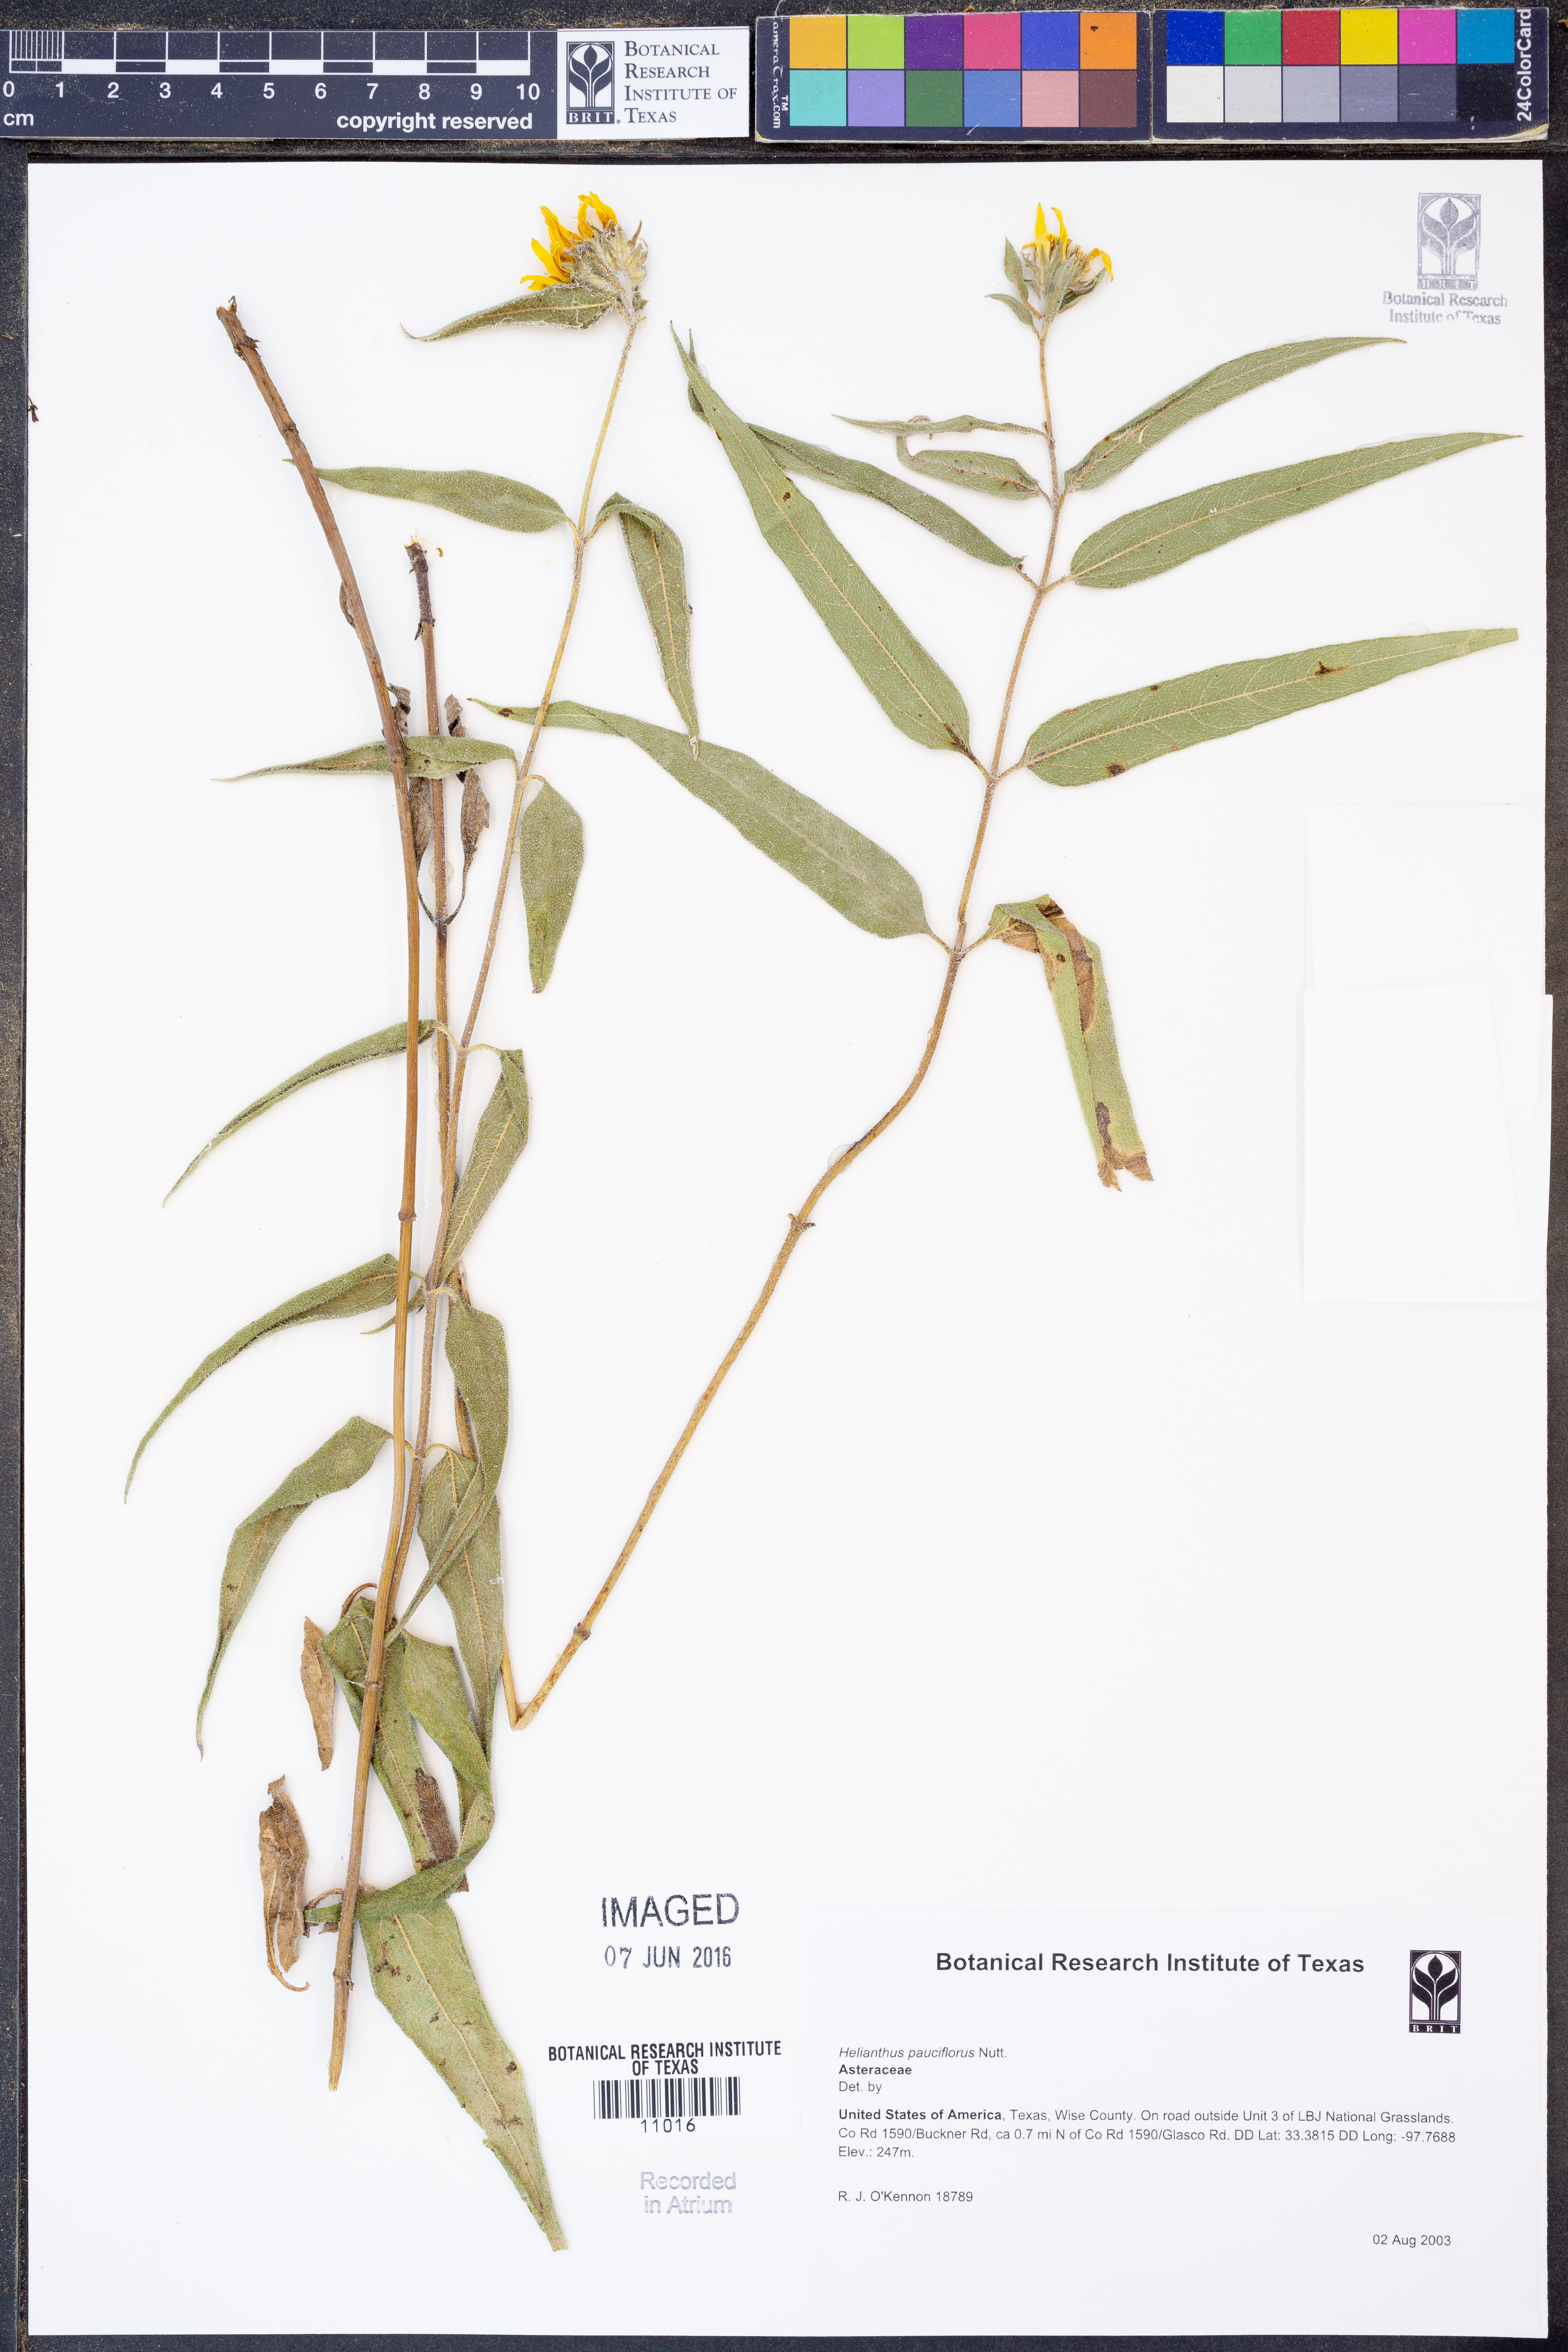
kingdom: Plantae
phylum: Tracheophyta
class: Magnoliopsida
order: Asterales
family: Asteraceae
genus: Helianthus
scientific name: Helianthus pauciflorus
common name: Stiff sunflower
